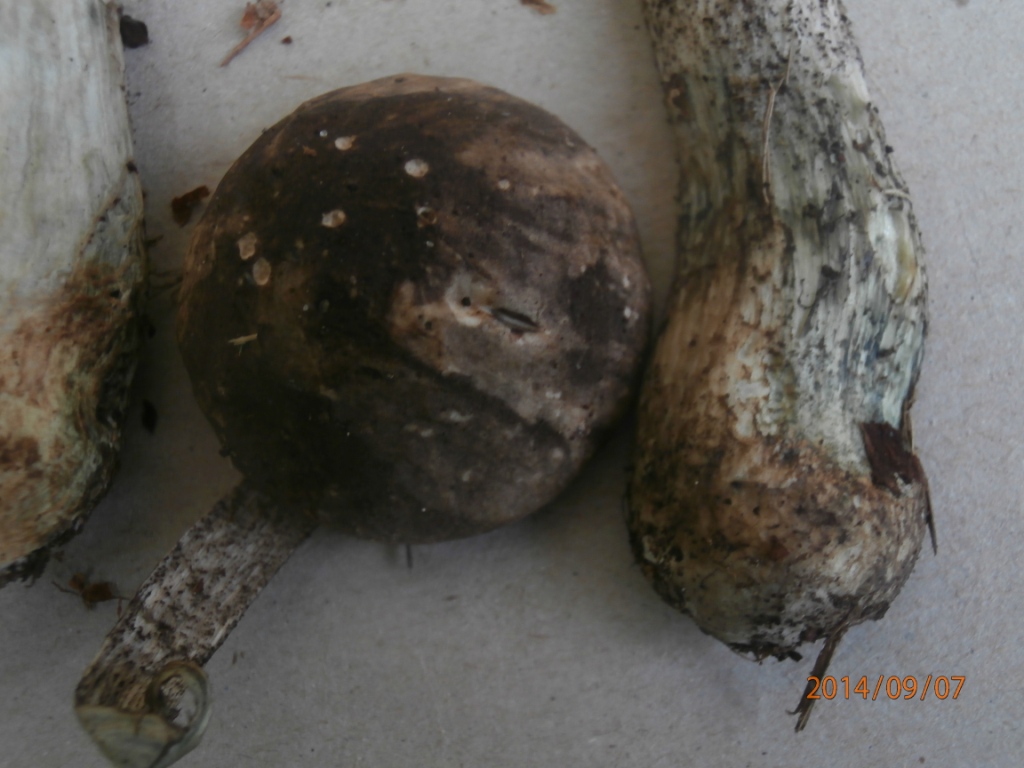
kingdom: Fungi
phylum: Basidiomycota
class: Agaricomycetes
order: Boletales
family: Boletaceae
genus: Leccinum
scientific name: Leccinum variicolor
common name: flammet skælrørhat
